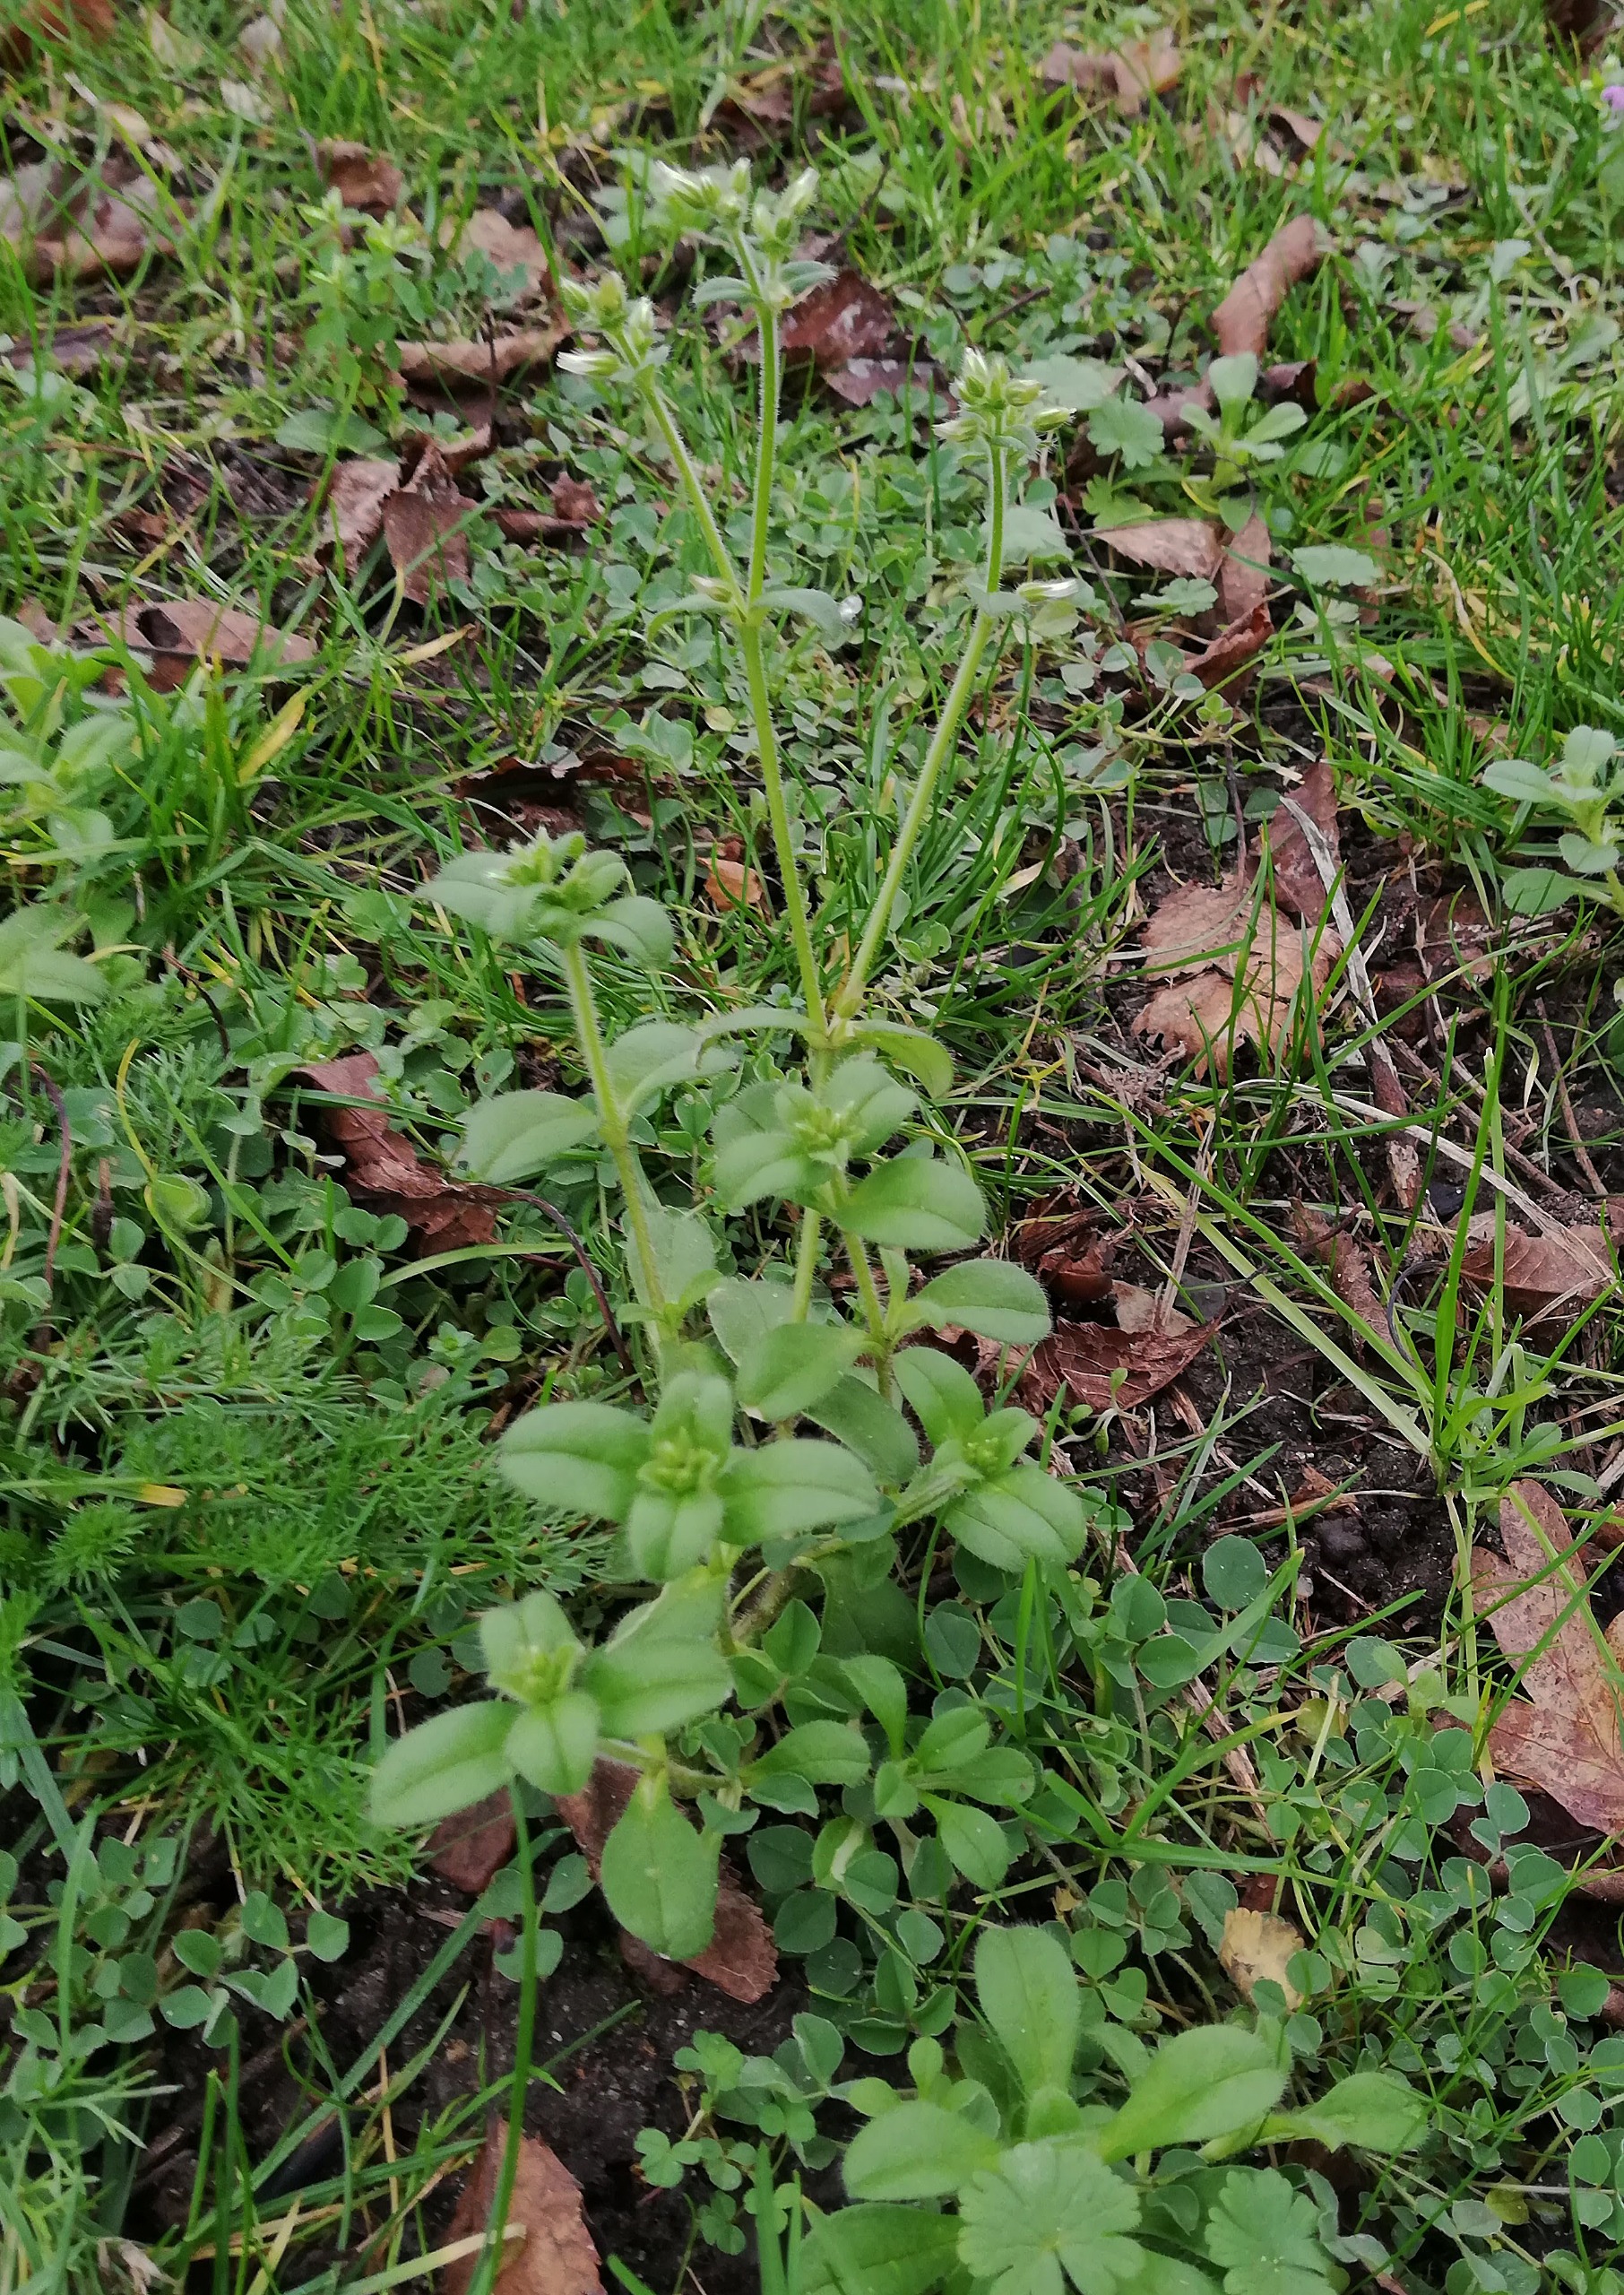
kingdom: Plantae
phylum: Tracheophyta
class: Magnoliopsida
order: Caryophyllales
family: Caryophyllaceae
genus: Cerastium
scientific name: Cerastium glomeratum
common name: Opret hønsetarm
